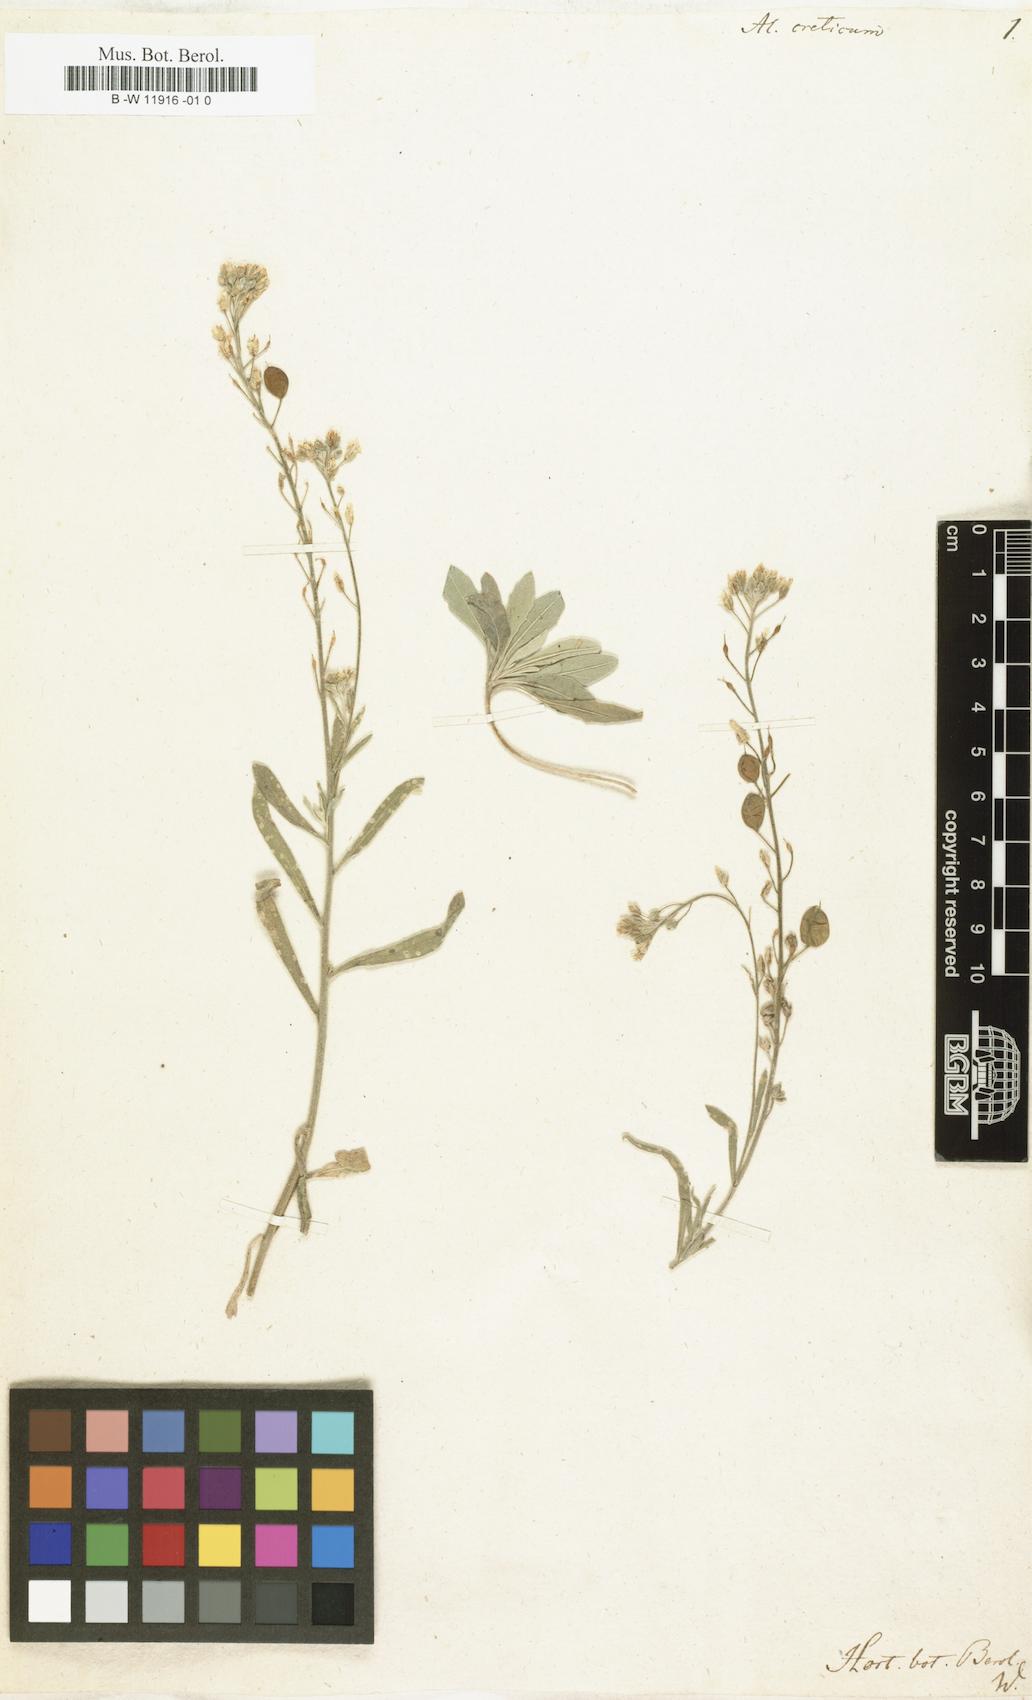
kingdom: Plantae
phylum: Tracheophyta
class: Magnoliopsida
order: Brassicales
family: Brassicaceae
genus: Lutzia
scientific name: Lutzia cretica
